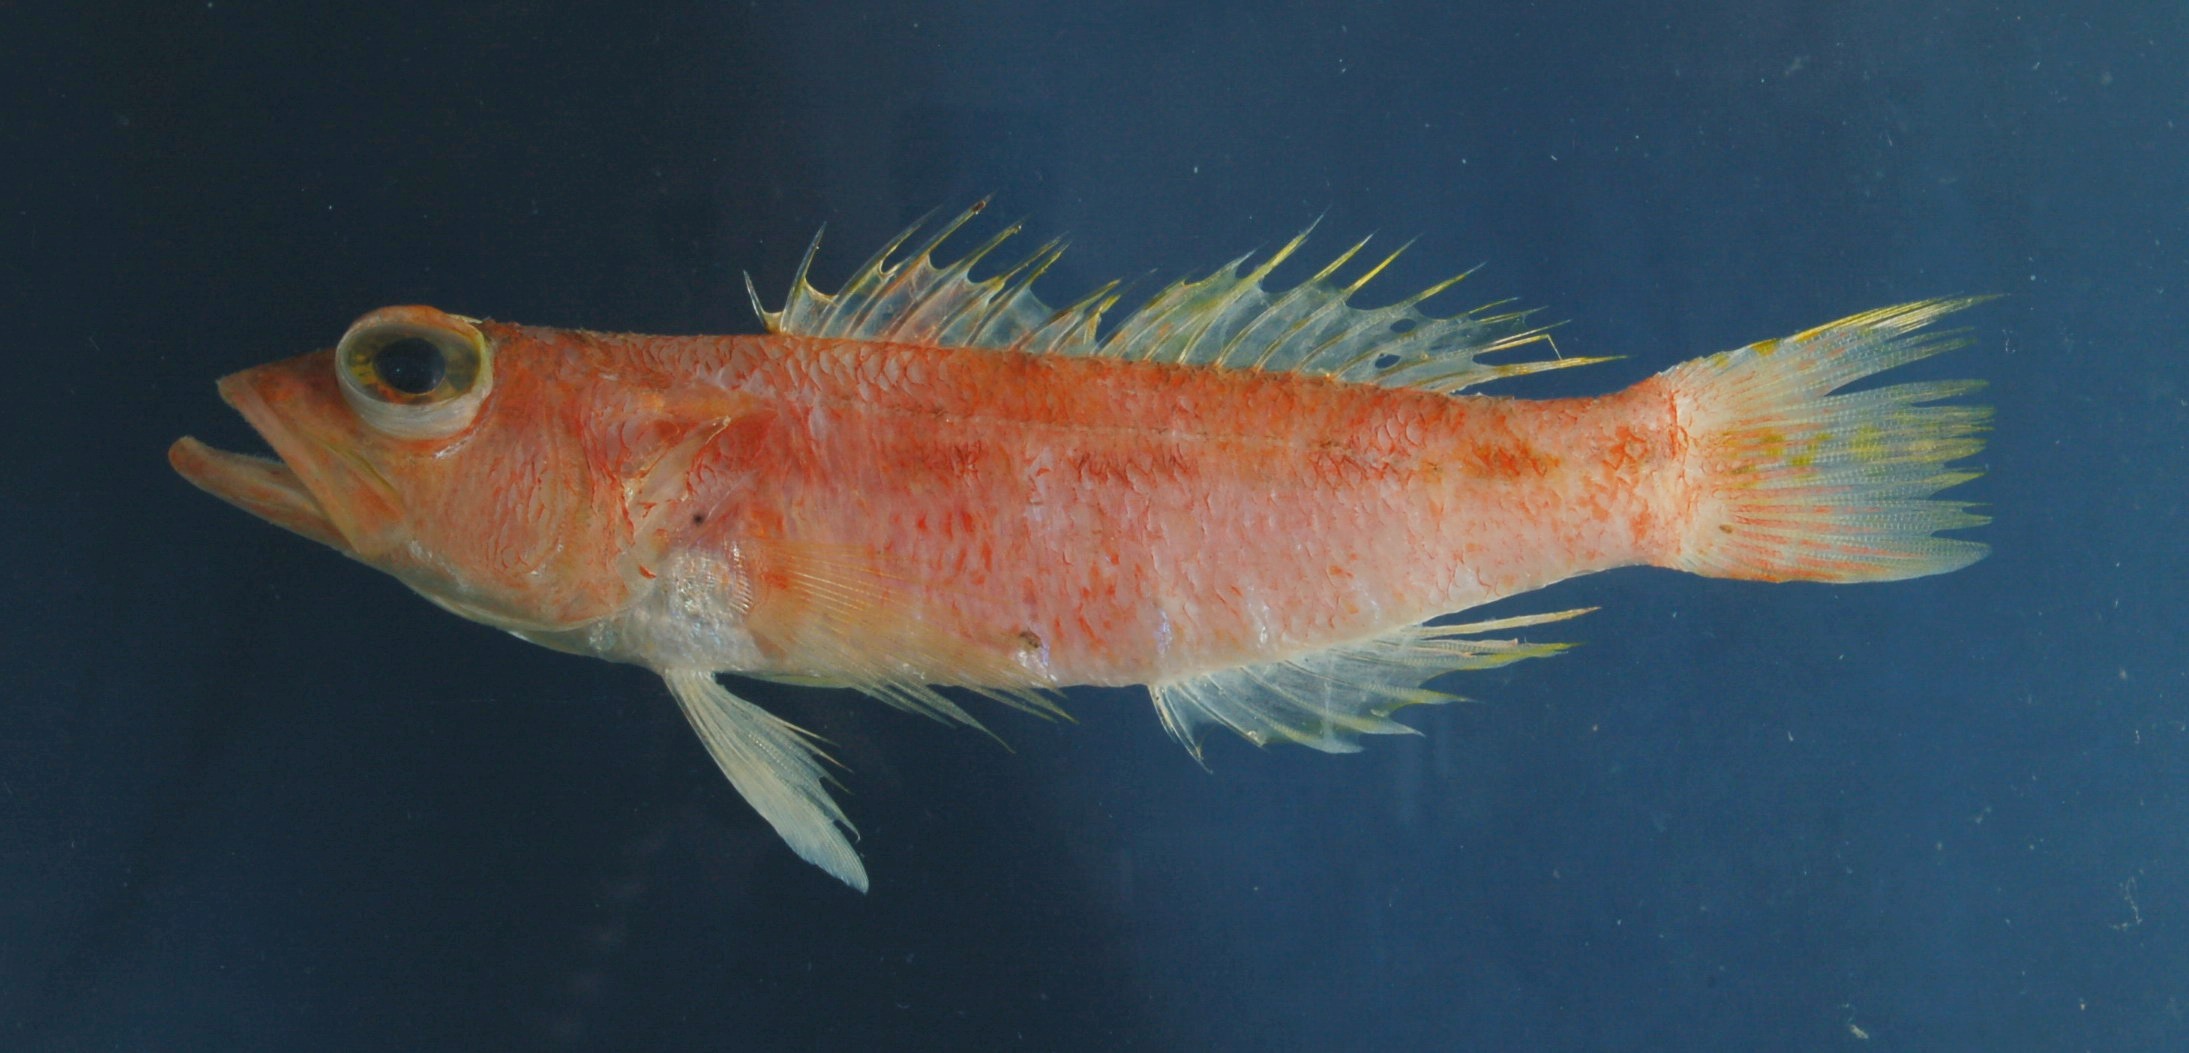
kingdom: Animalia
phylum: Chordata
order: Perciformes
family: Serranidae
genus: Chelidoperca
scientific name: Chelidoperca investigatoris
